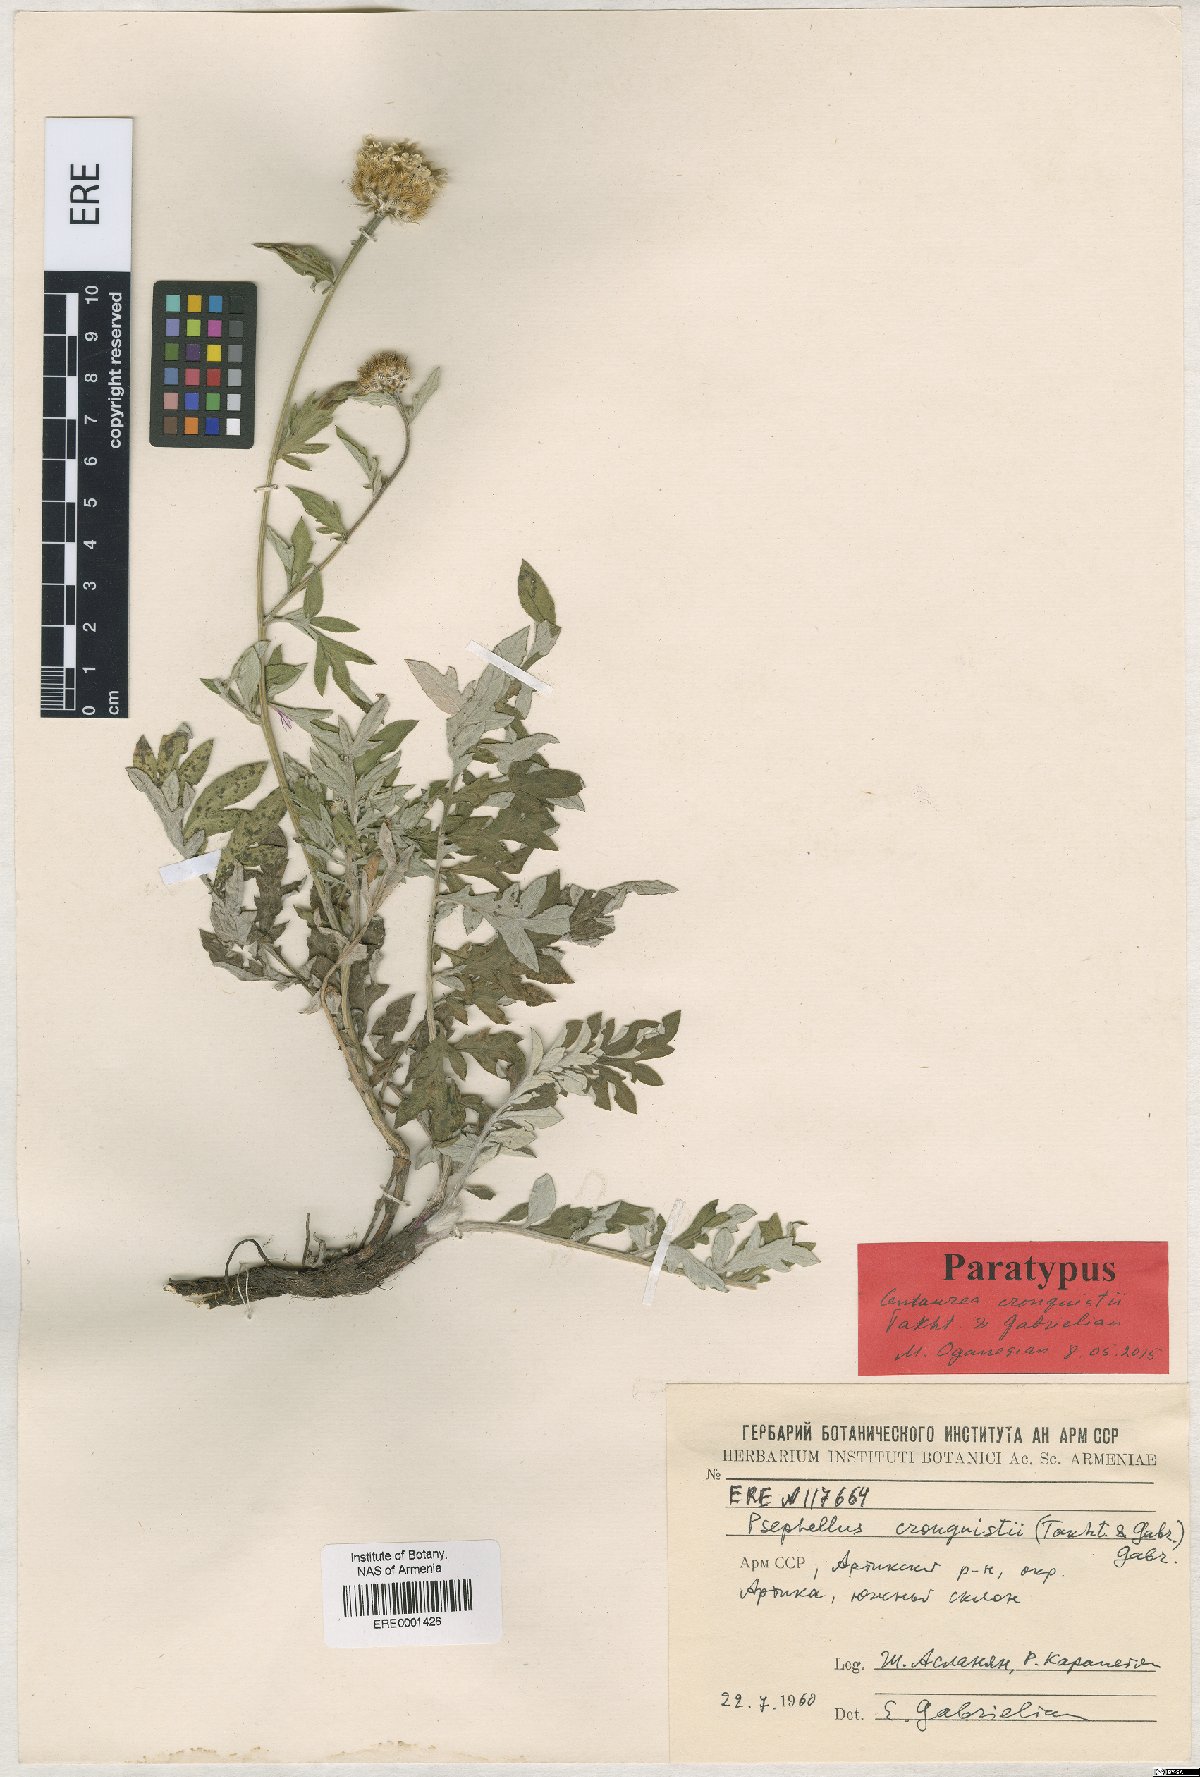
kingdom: Plantae
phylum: Tracheophyta
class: Magnoliopsida
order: Asterales
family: Asteraceae
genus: Psephellus
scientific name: Psephellus cronquistii
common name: Cronquists's cornflower
